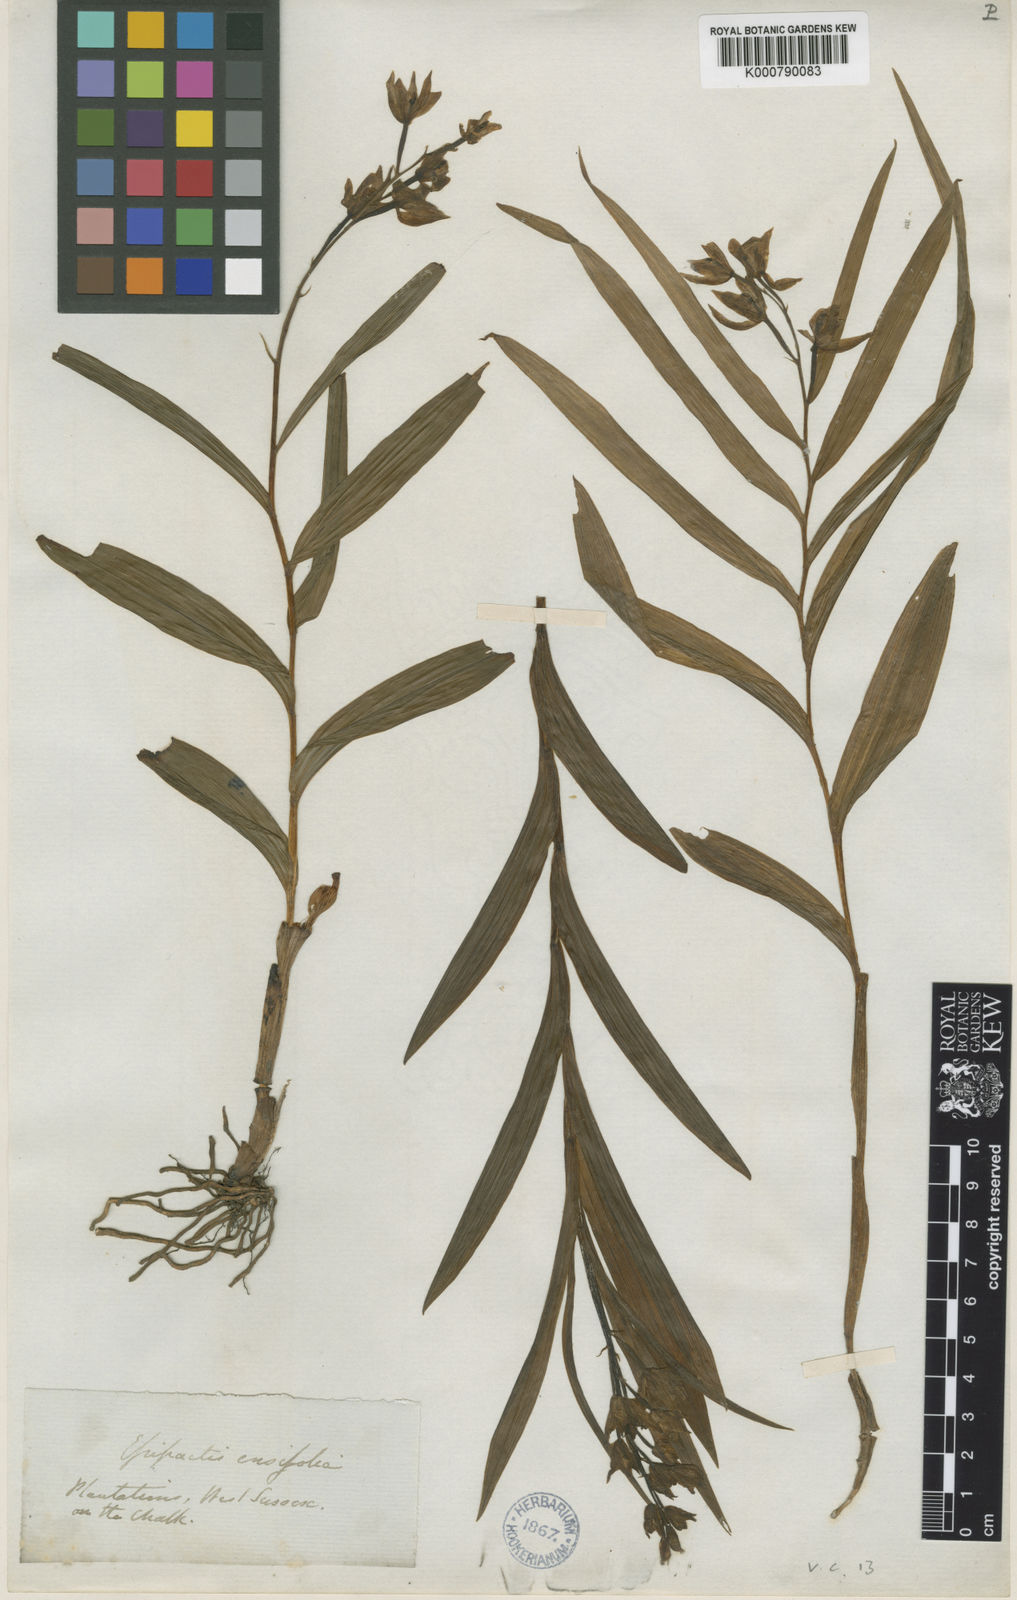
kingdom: Plantae
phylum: Tracheophyta
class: Liliopsida
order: Asparagales
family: Orchidaceae
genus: Cephalanthera
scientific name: Cephalanthera longifolia
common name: Narrow-leaved helleborine
